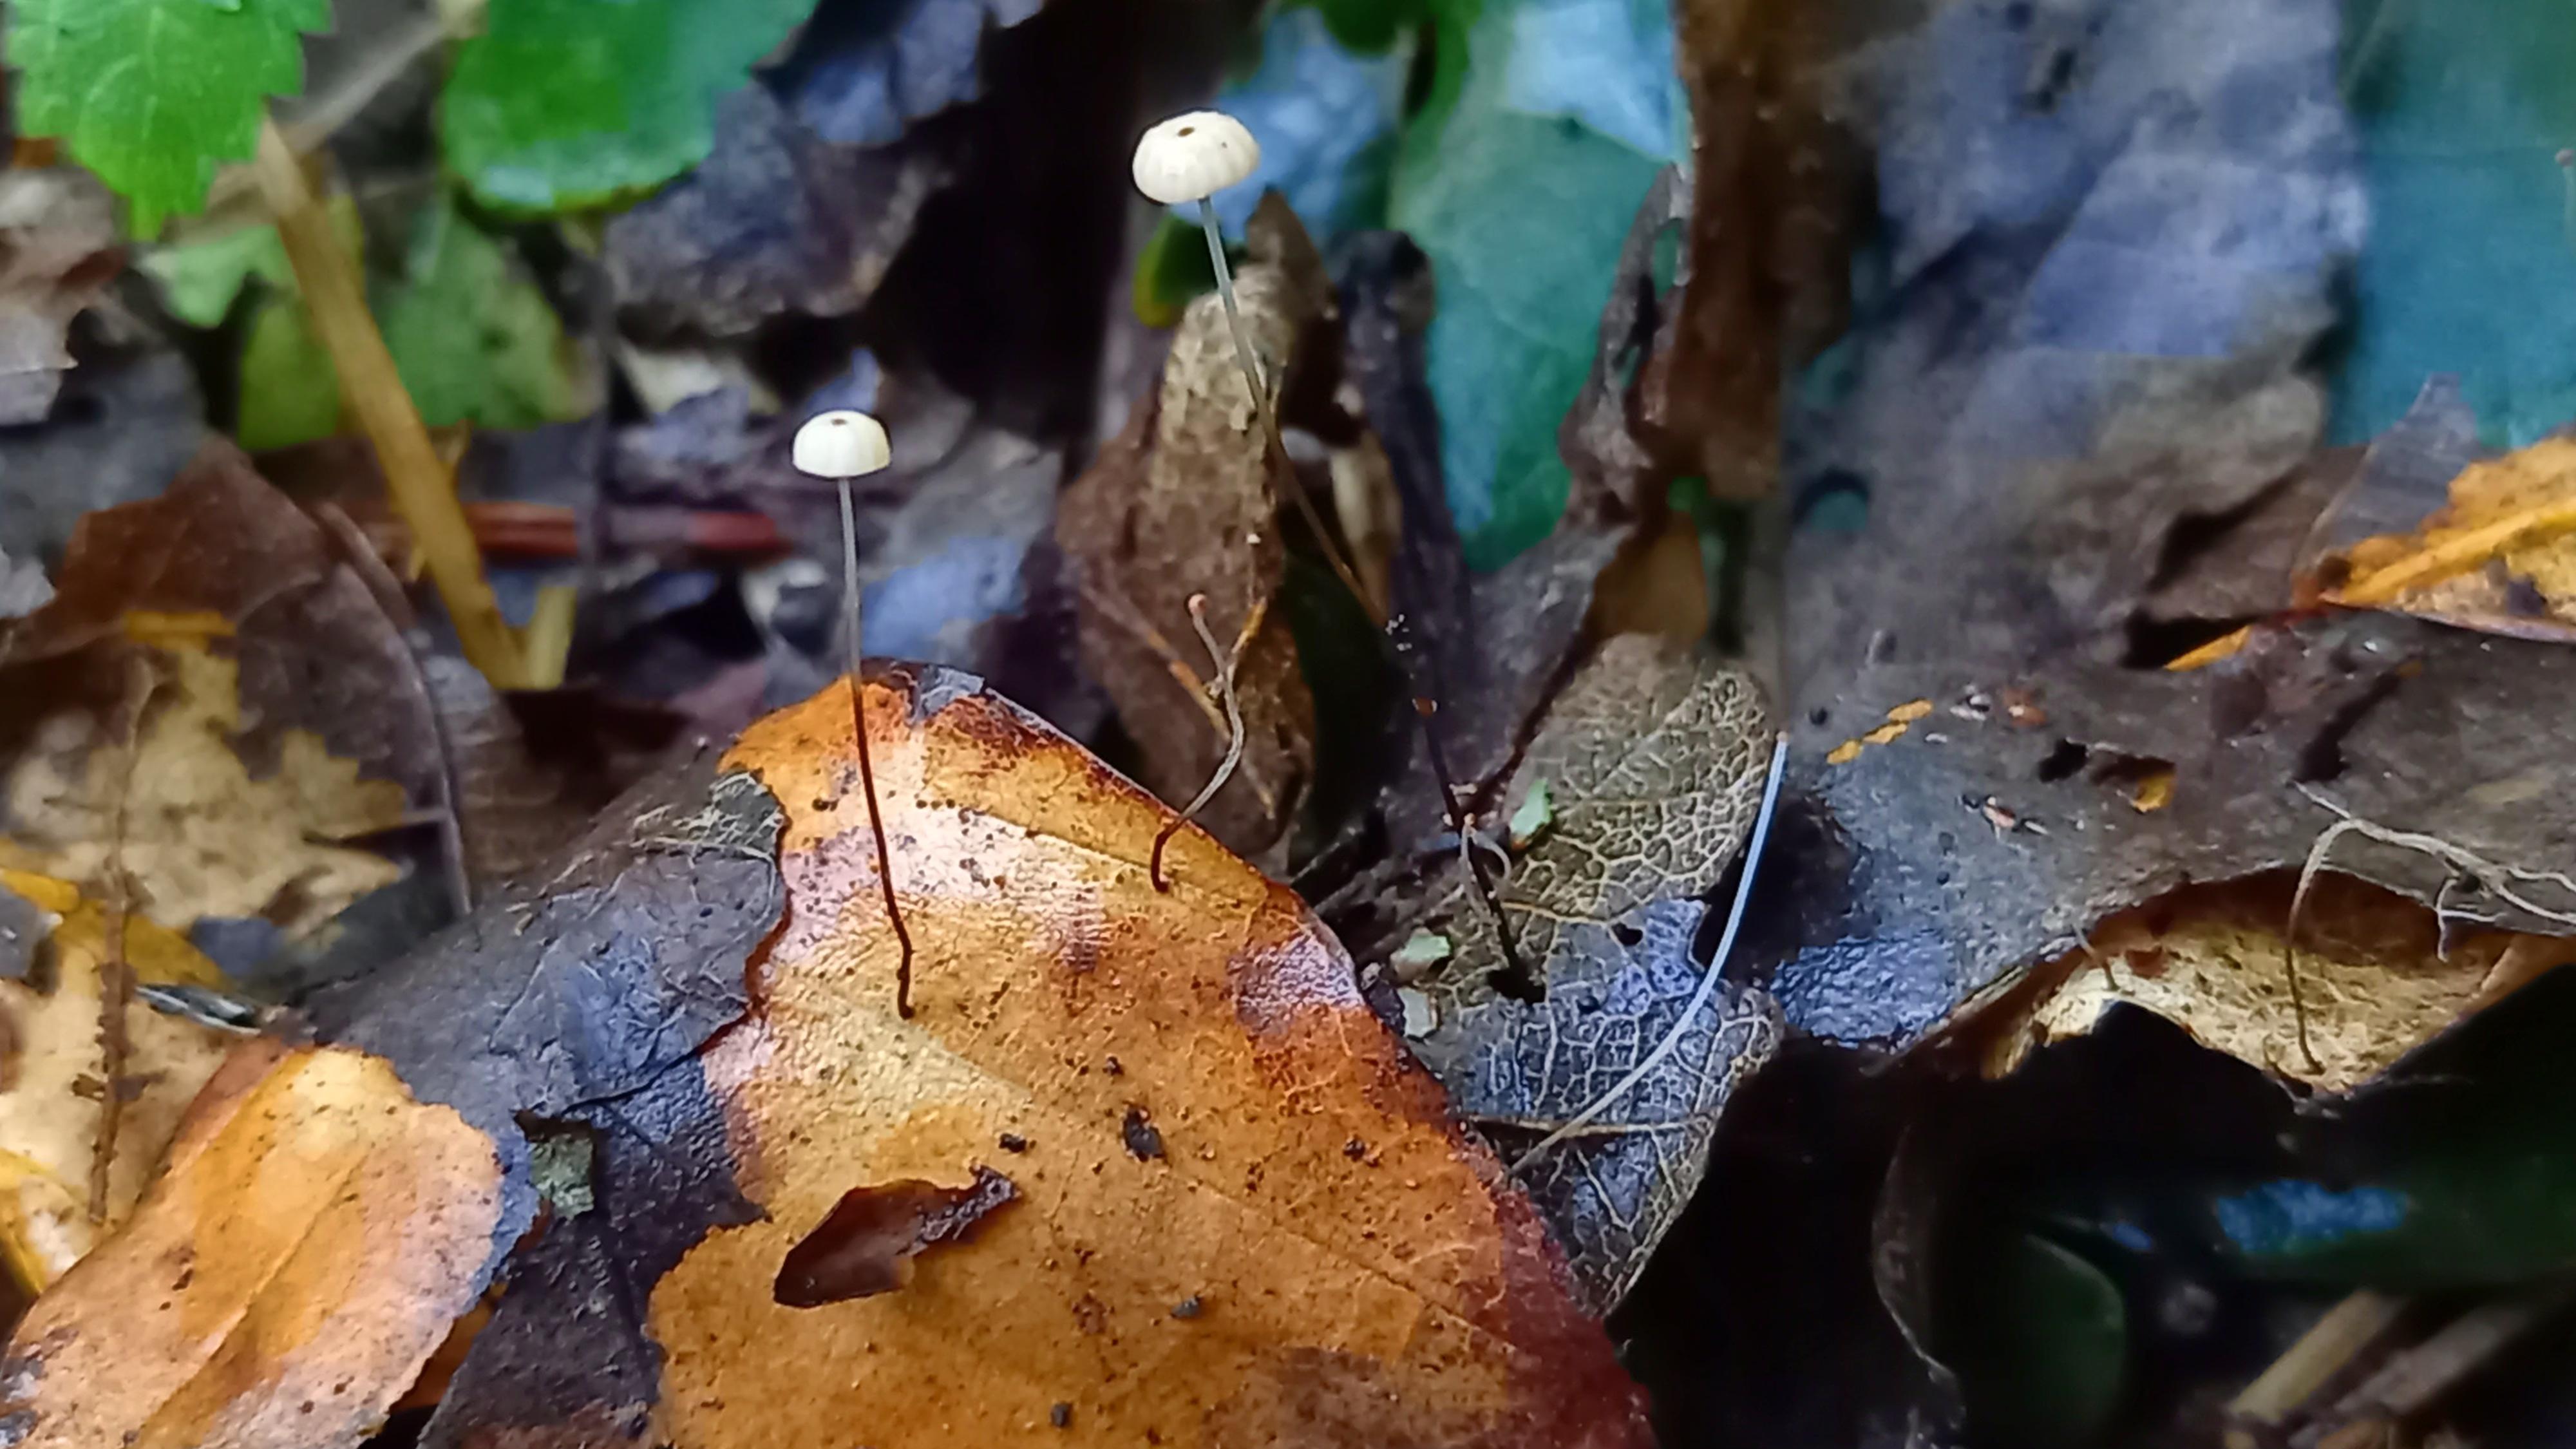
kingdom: Fungi
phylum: Basidiomycota
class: Agaricomycetes
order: Agaricales
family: Marasmiaceae
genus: Marasmius
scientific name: Marasmius bulliardii
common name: furet bruskhat
